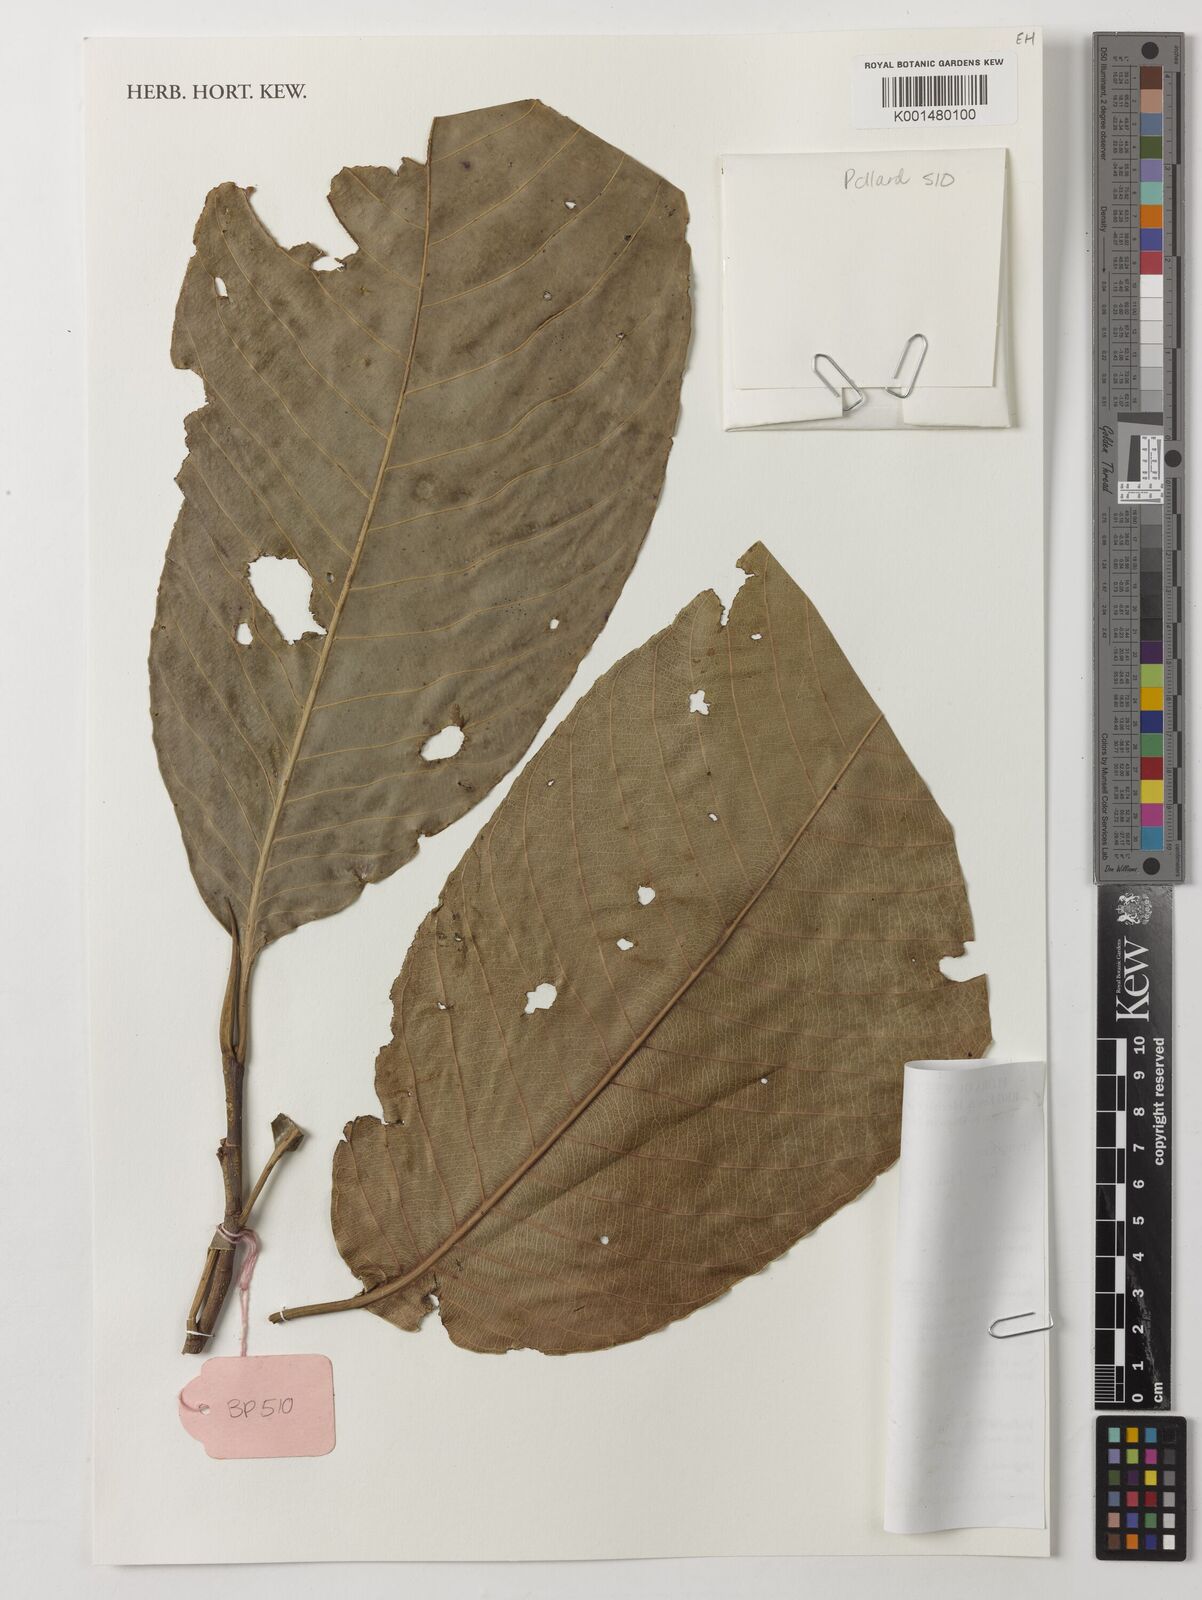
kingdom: Plantae
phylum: Tracheophyta
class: Magnoliopsida
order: Malpighiales
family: Euphorbiaceae
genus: Pseudagrostistachys
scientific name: Pseudagrostistachys africana
